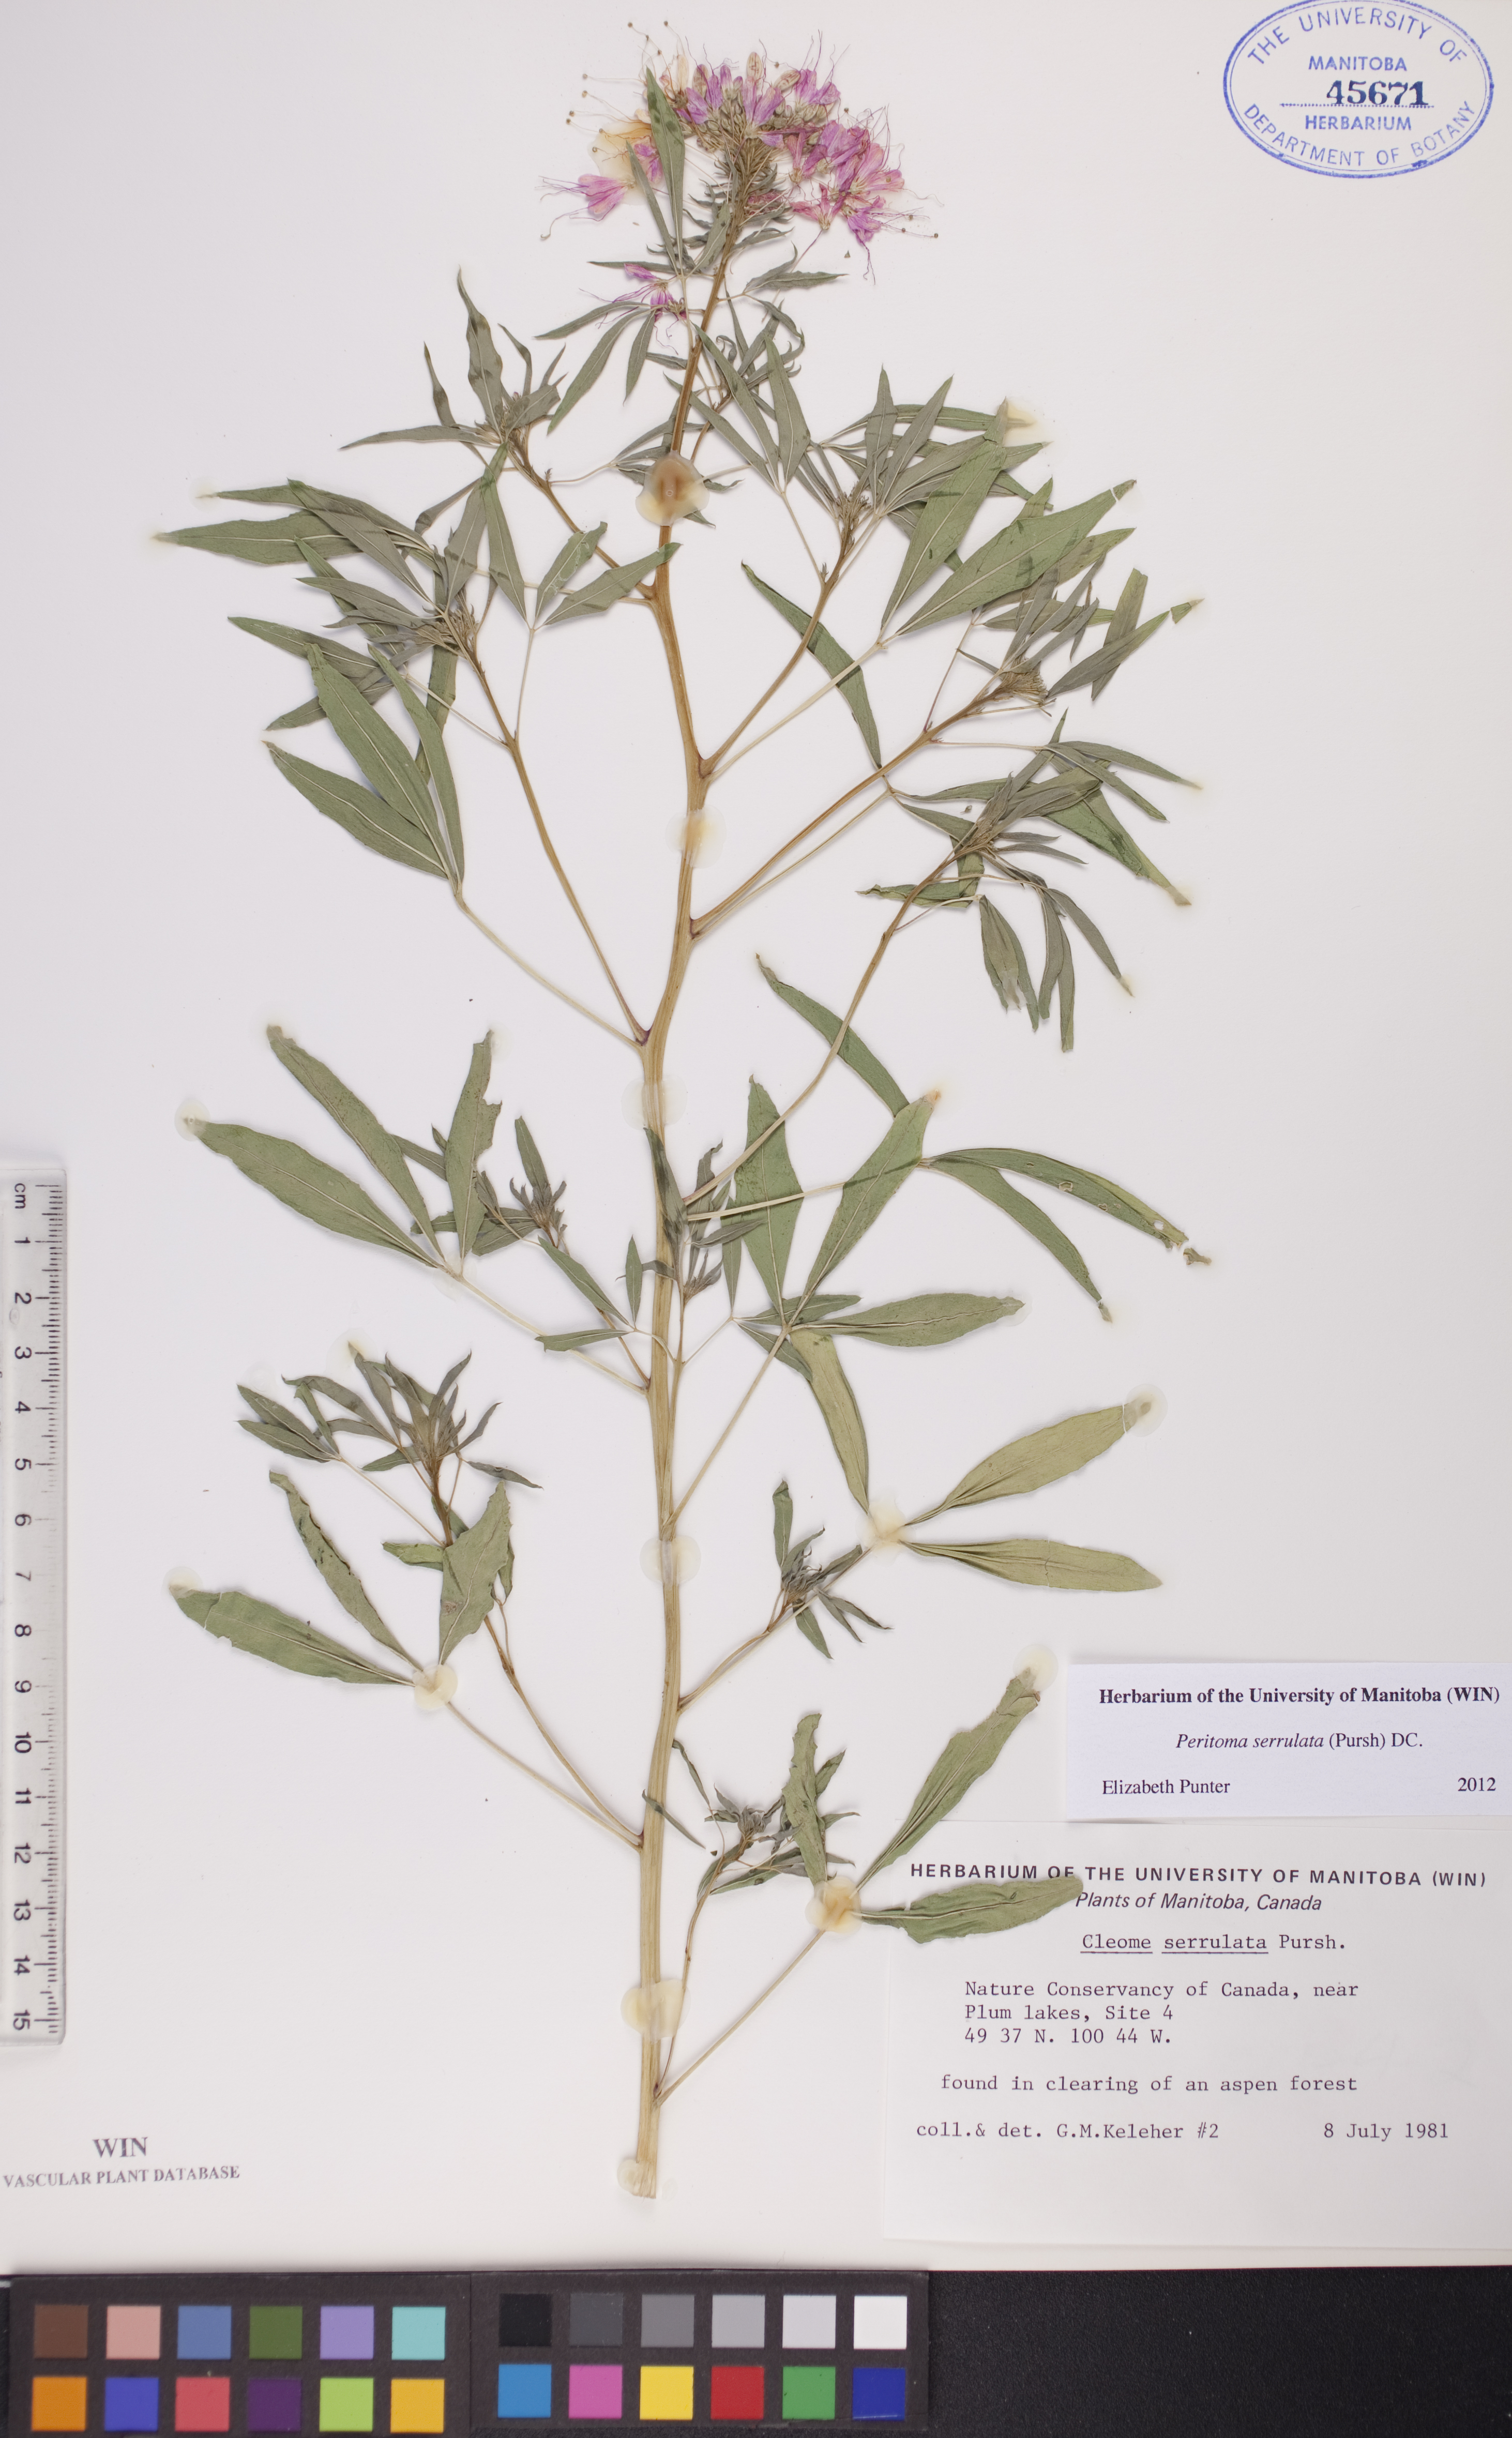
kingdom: Plantae
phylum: Tracheophyta
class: Magnoliopsida
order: Brassicales
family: Cleomaceae
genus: Cleomella
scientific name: Cleomella serrulata
